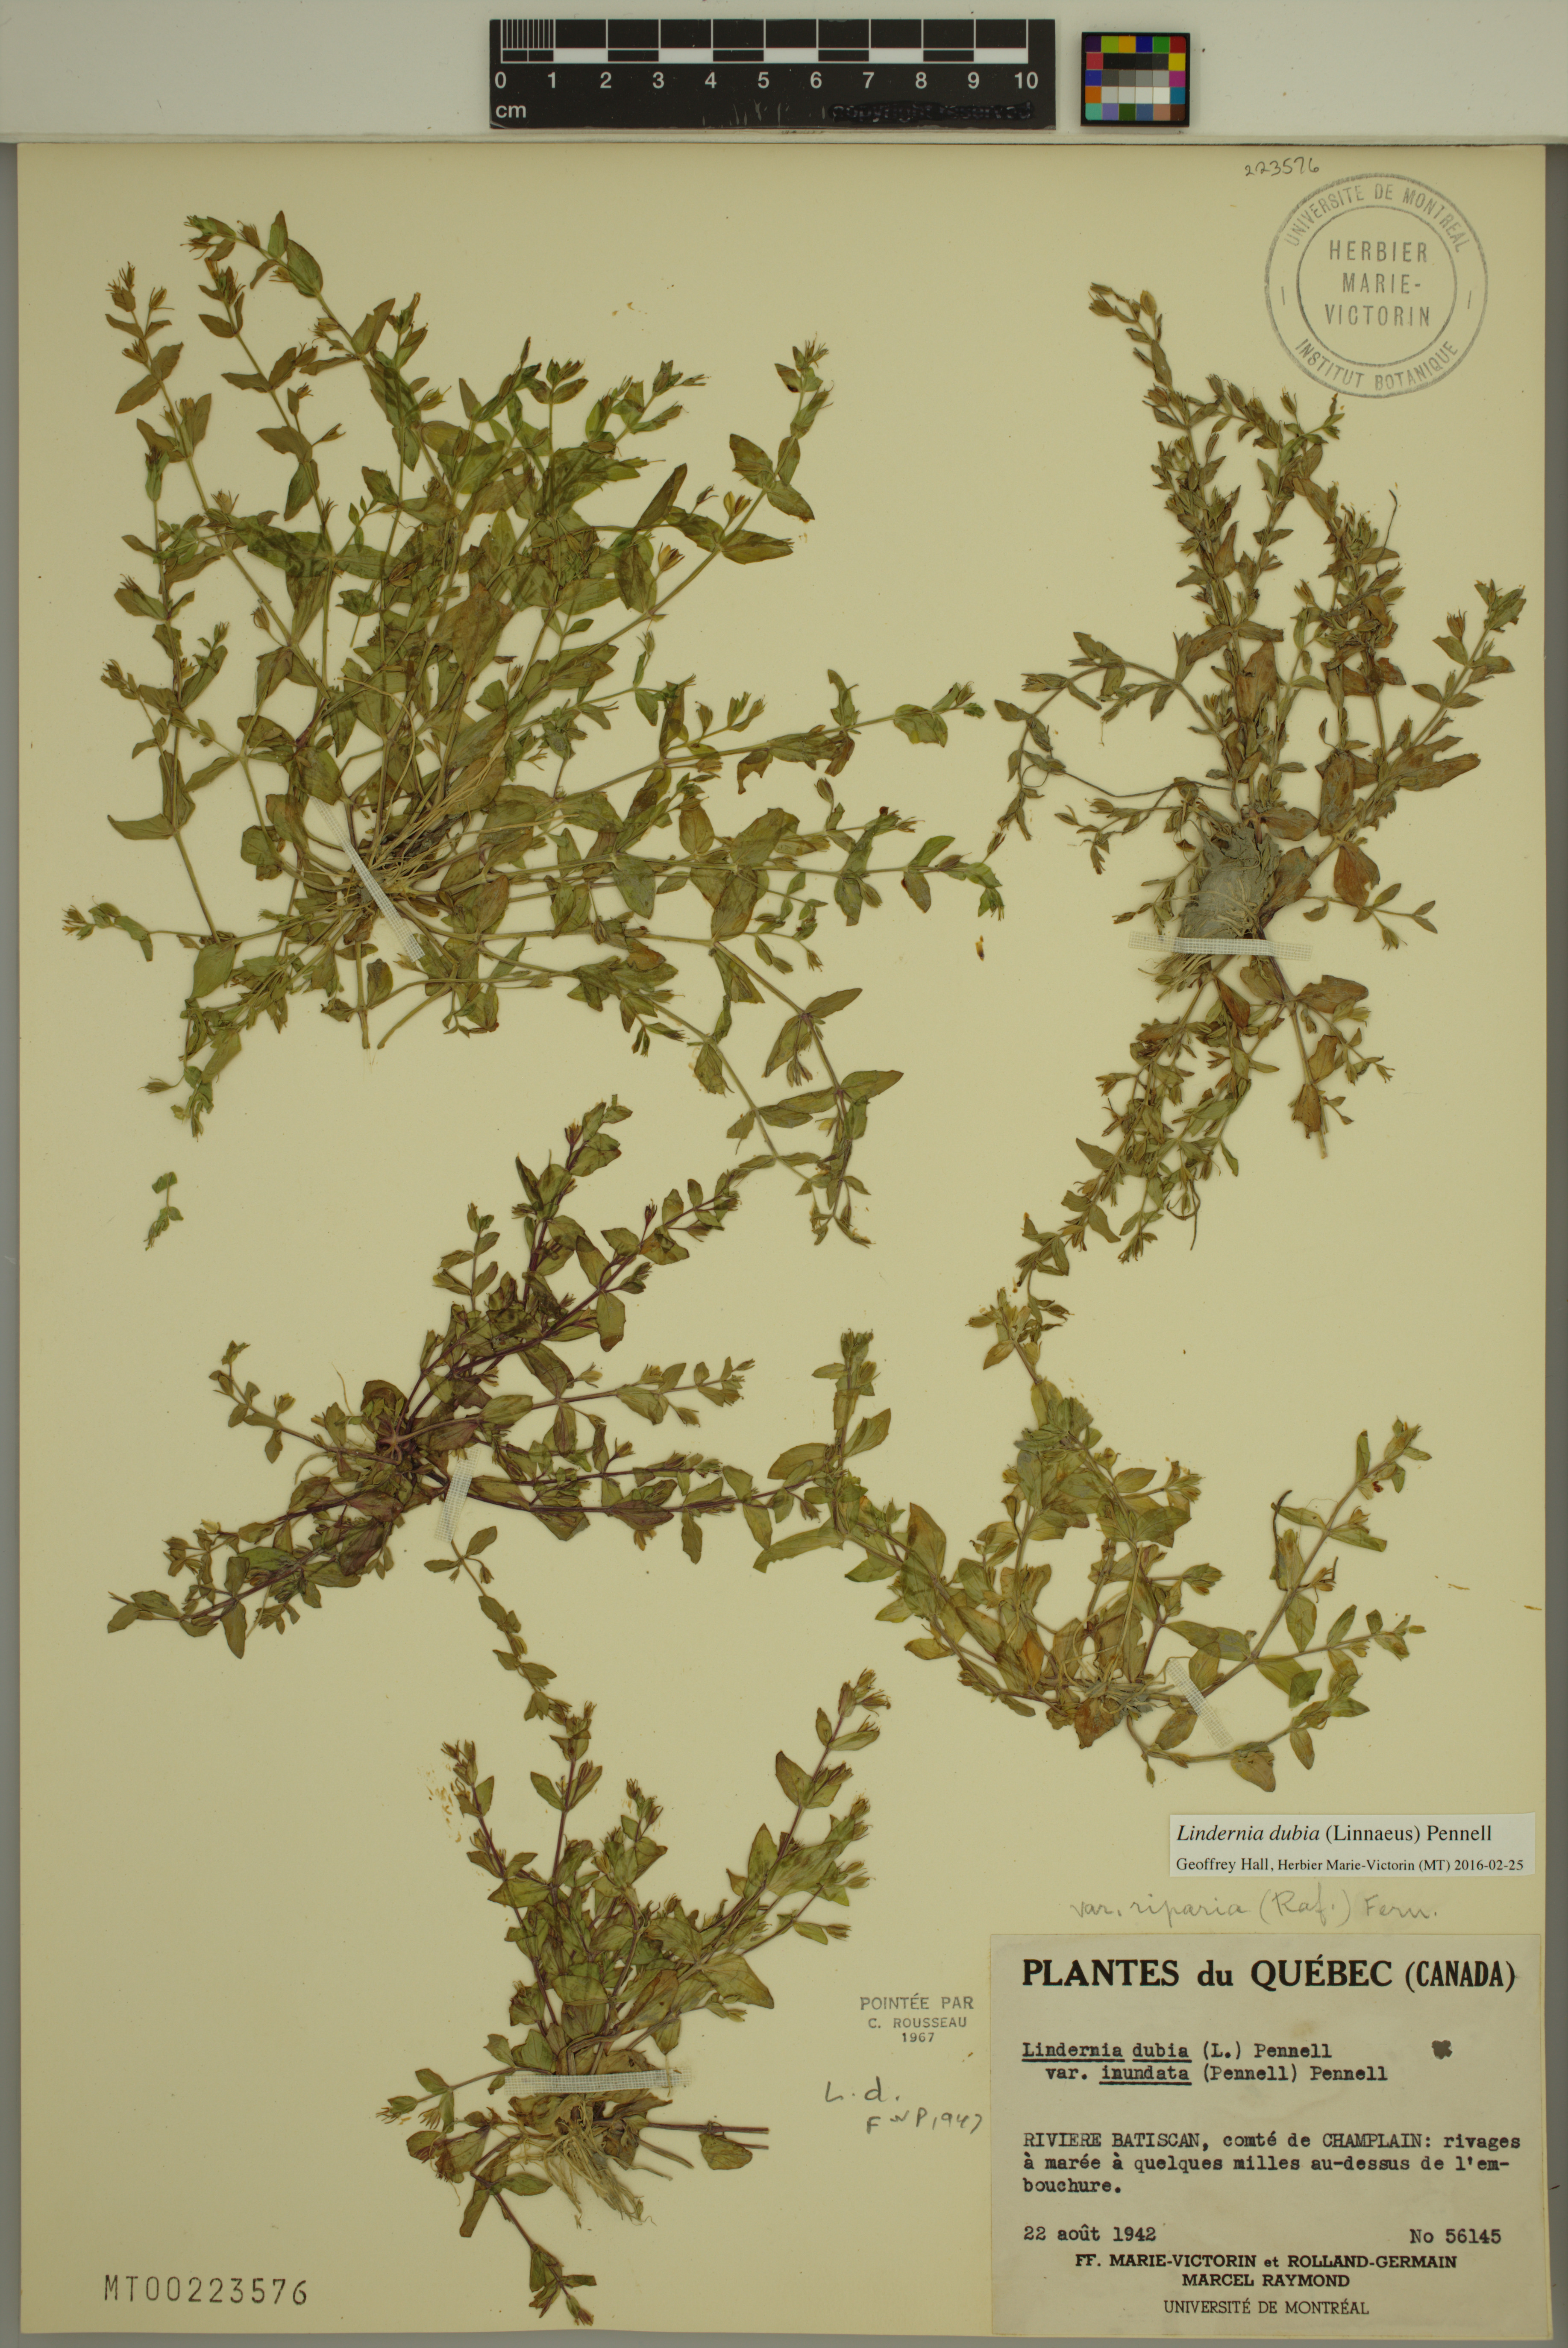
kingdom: Plantae
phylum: Tracheophyta
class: Magnoliopsida
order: Lamiales
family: Linderniaceae
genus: Lindernia
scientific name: Lindernia dubia
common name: Annual false pimpernel
